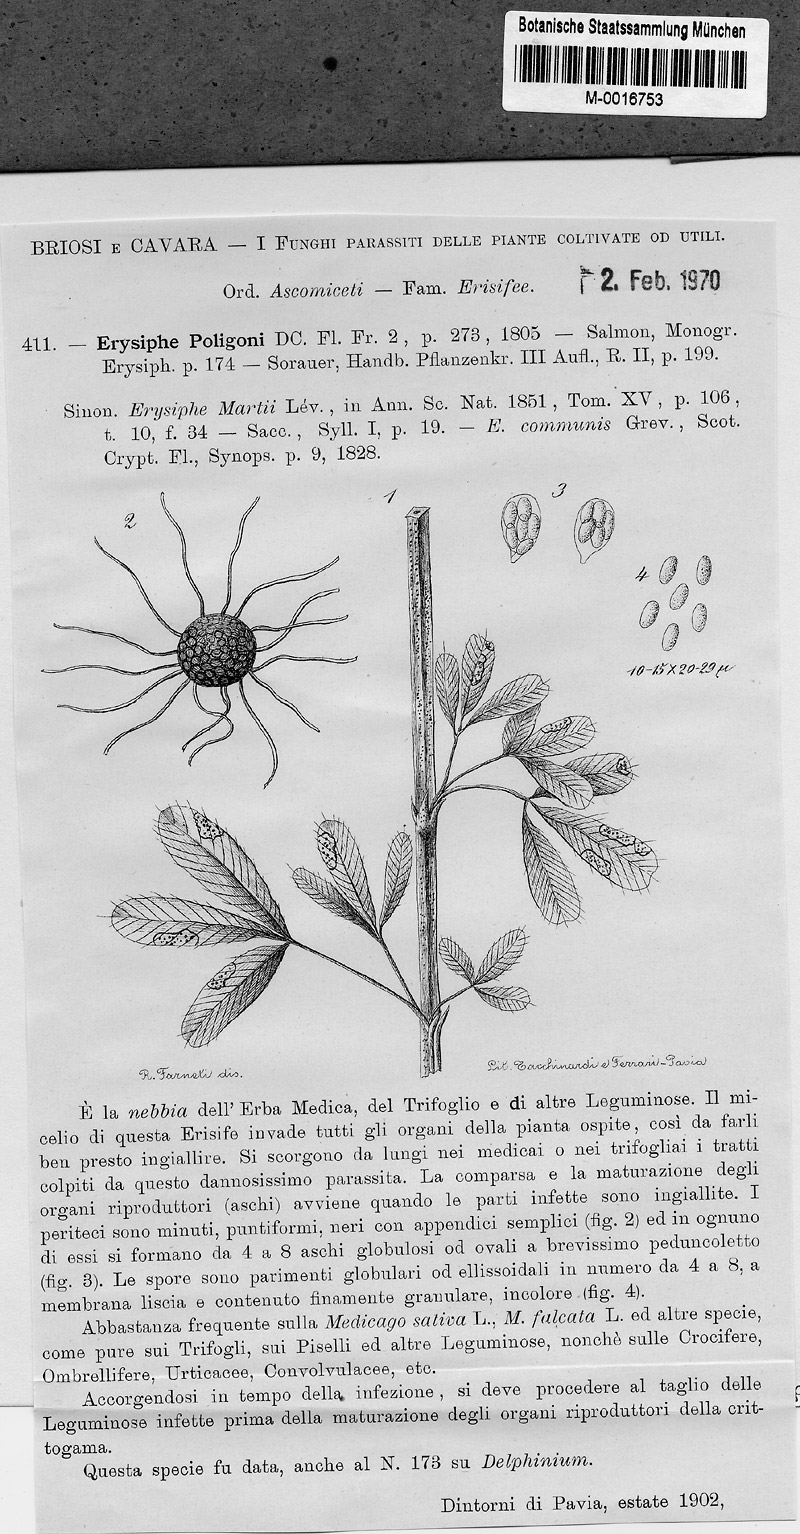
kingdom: Plantae
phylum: Tracheophyta
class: Magnoliopsida
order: Ranunculales
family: Ranunculaceae
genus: Delphinium
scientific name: Delphinium
